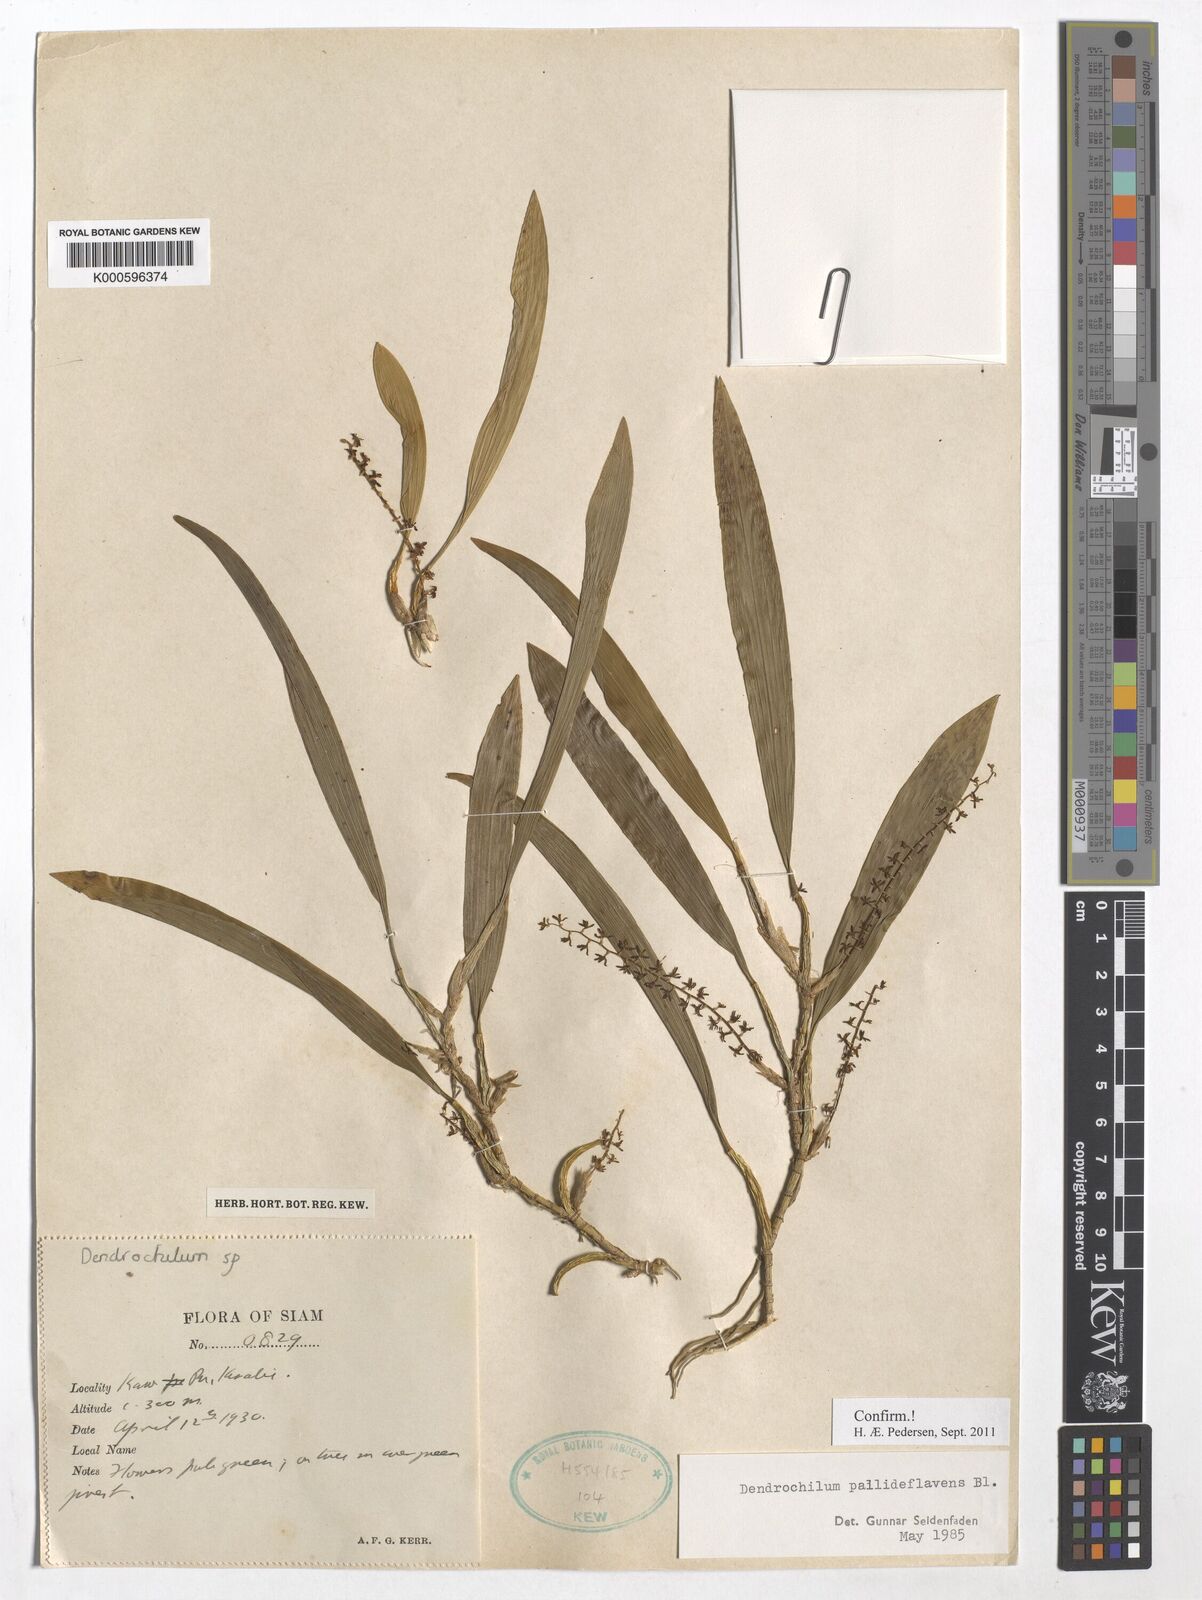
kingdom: Plantae
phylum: Tracheophyta
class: Liliopsida
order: Asparagales
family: Orchidaceae
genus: Coelogyne
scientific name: Coelogyne pallidiflavens
